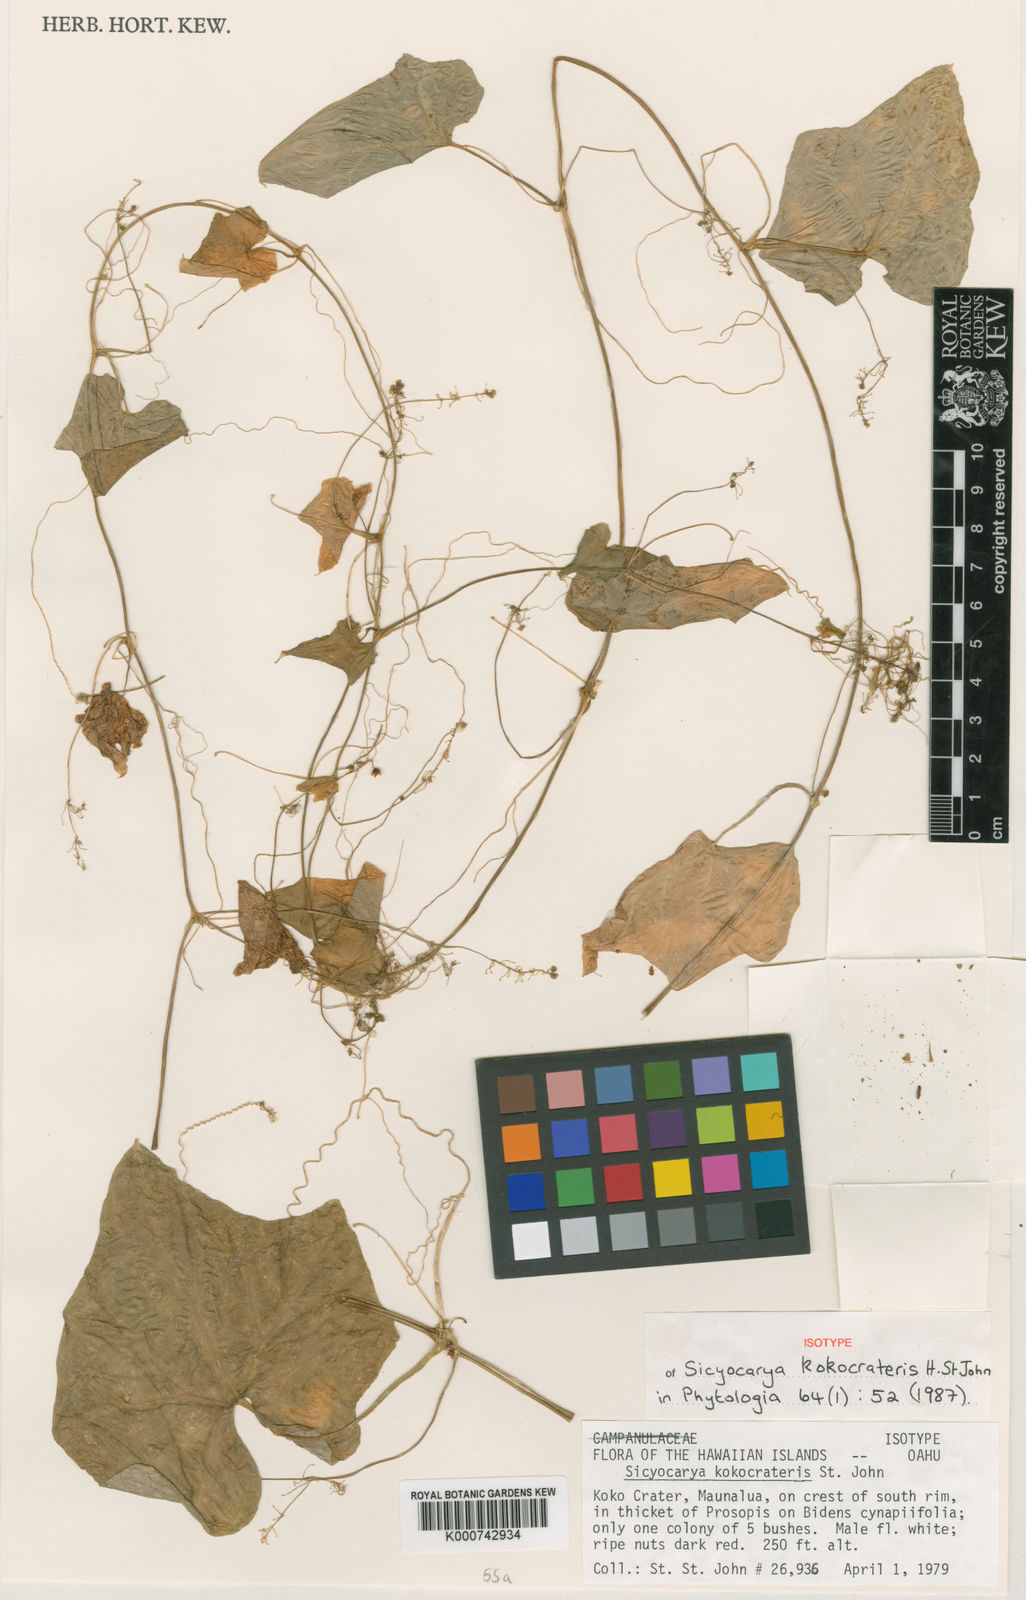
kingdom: Plantae
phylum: Tracheophyta
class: Magnoliopsida
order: Cucurbitales
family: Cucurbitaceae
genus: Sicyos
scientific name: Sicyos waimanaloensis
